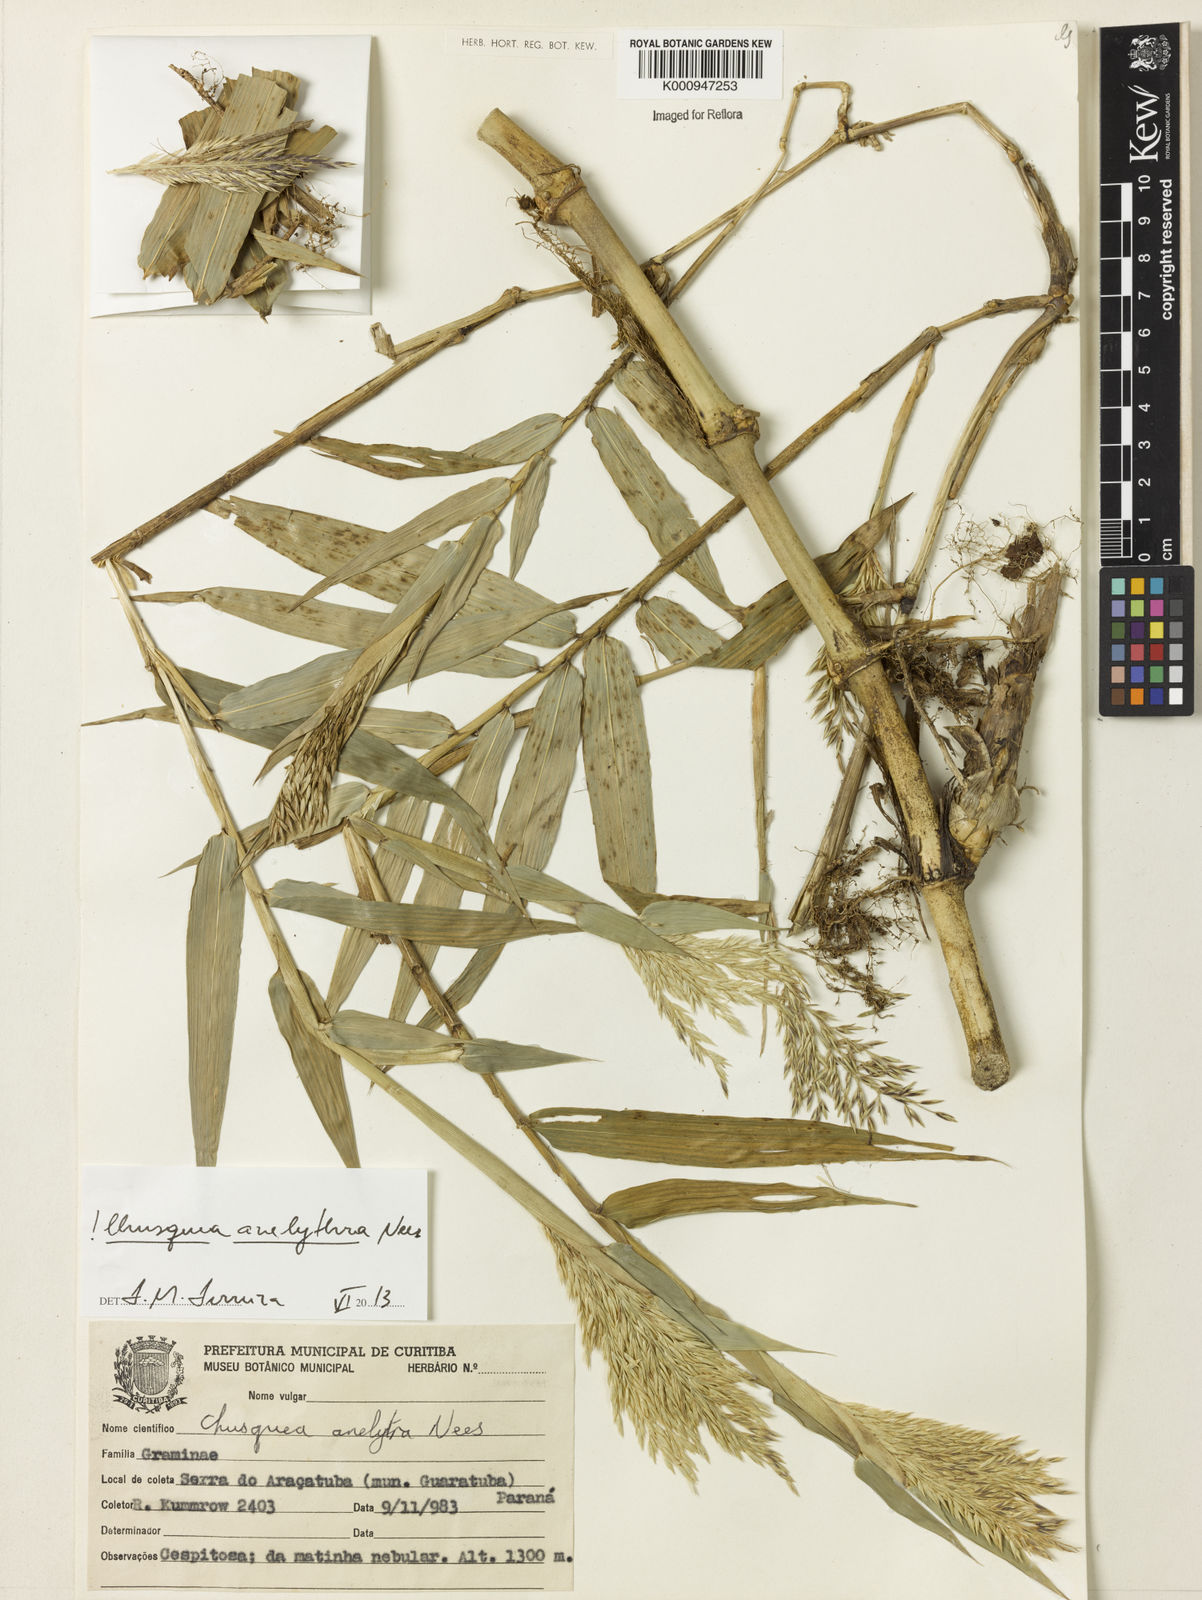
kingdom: Plantae
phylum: Tracheophyta
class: Liliopsida
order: Poales
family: Poaceae
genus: Chusquea
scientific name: Chusquea anelythra
